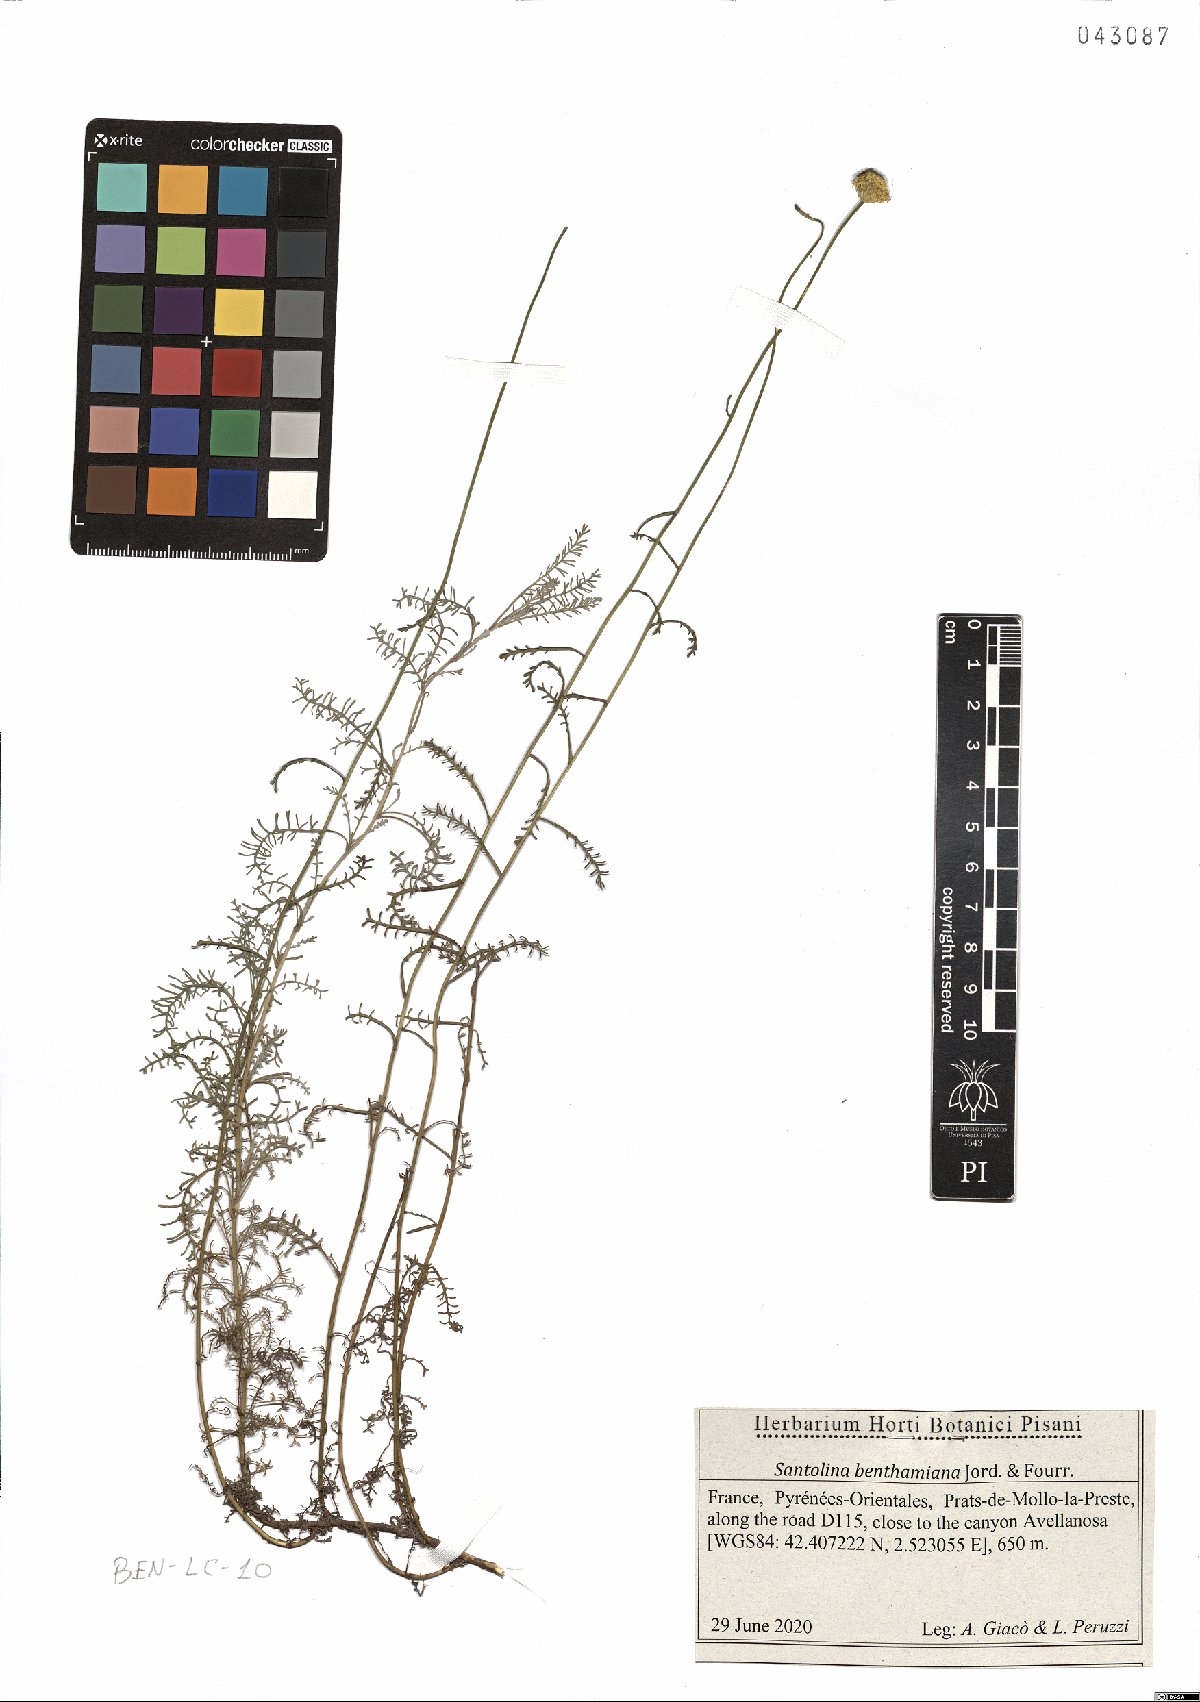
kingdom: Plantae
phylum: Tracheophyta
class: Magnoliopsida
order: Asterales
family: Asteraceae
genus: Santolina
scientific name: Santolina benthamiana
